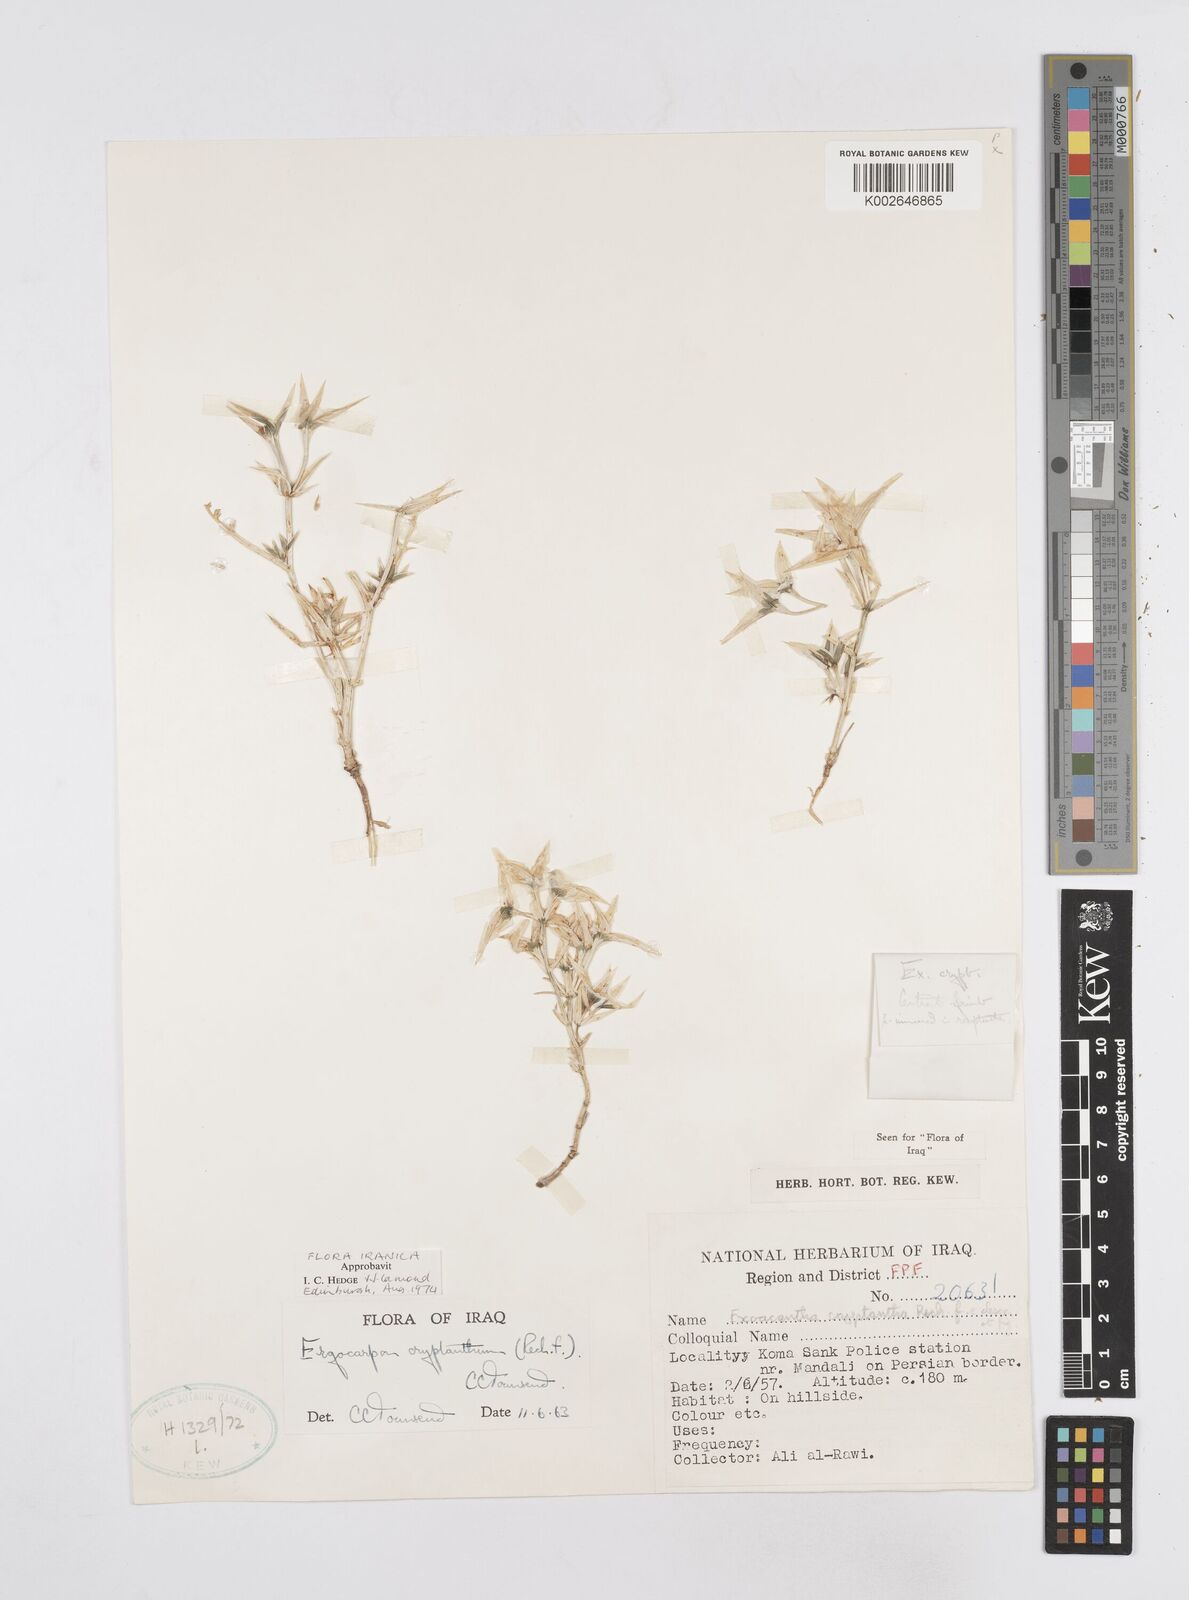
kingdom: Plantae
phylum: Tracheophyta
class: Magnoliopsida
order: Apiales
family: Apiaceae
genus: Ergocarpon
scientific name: Ergocarpon cryptanthum
